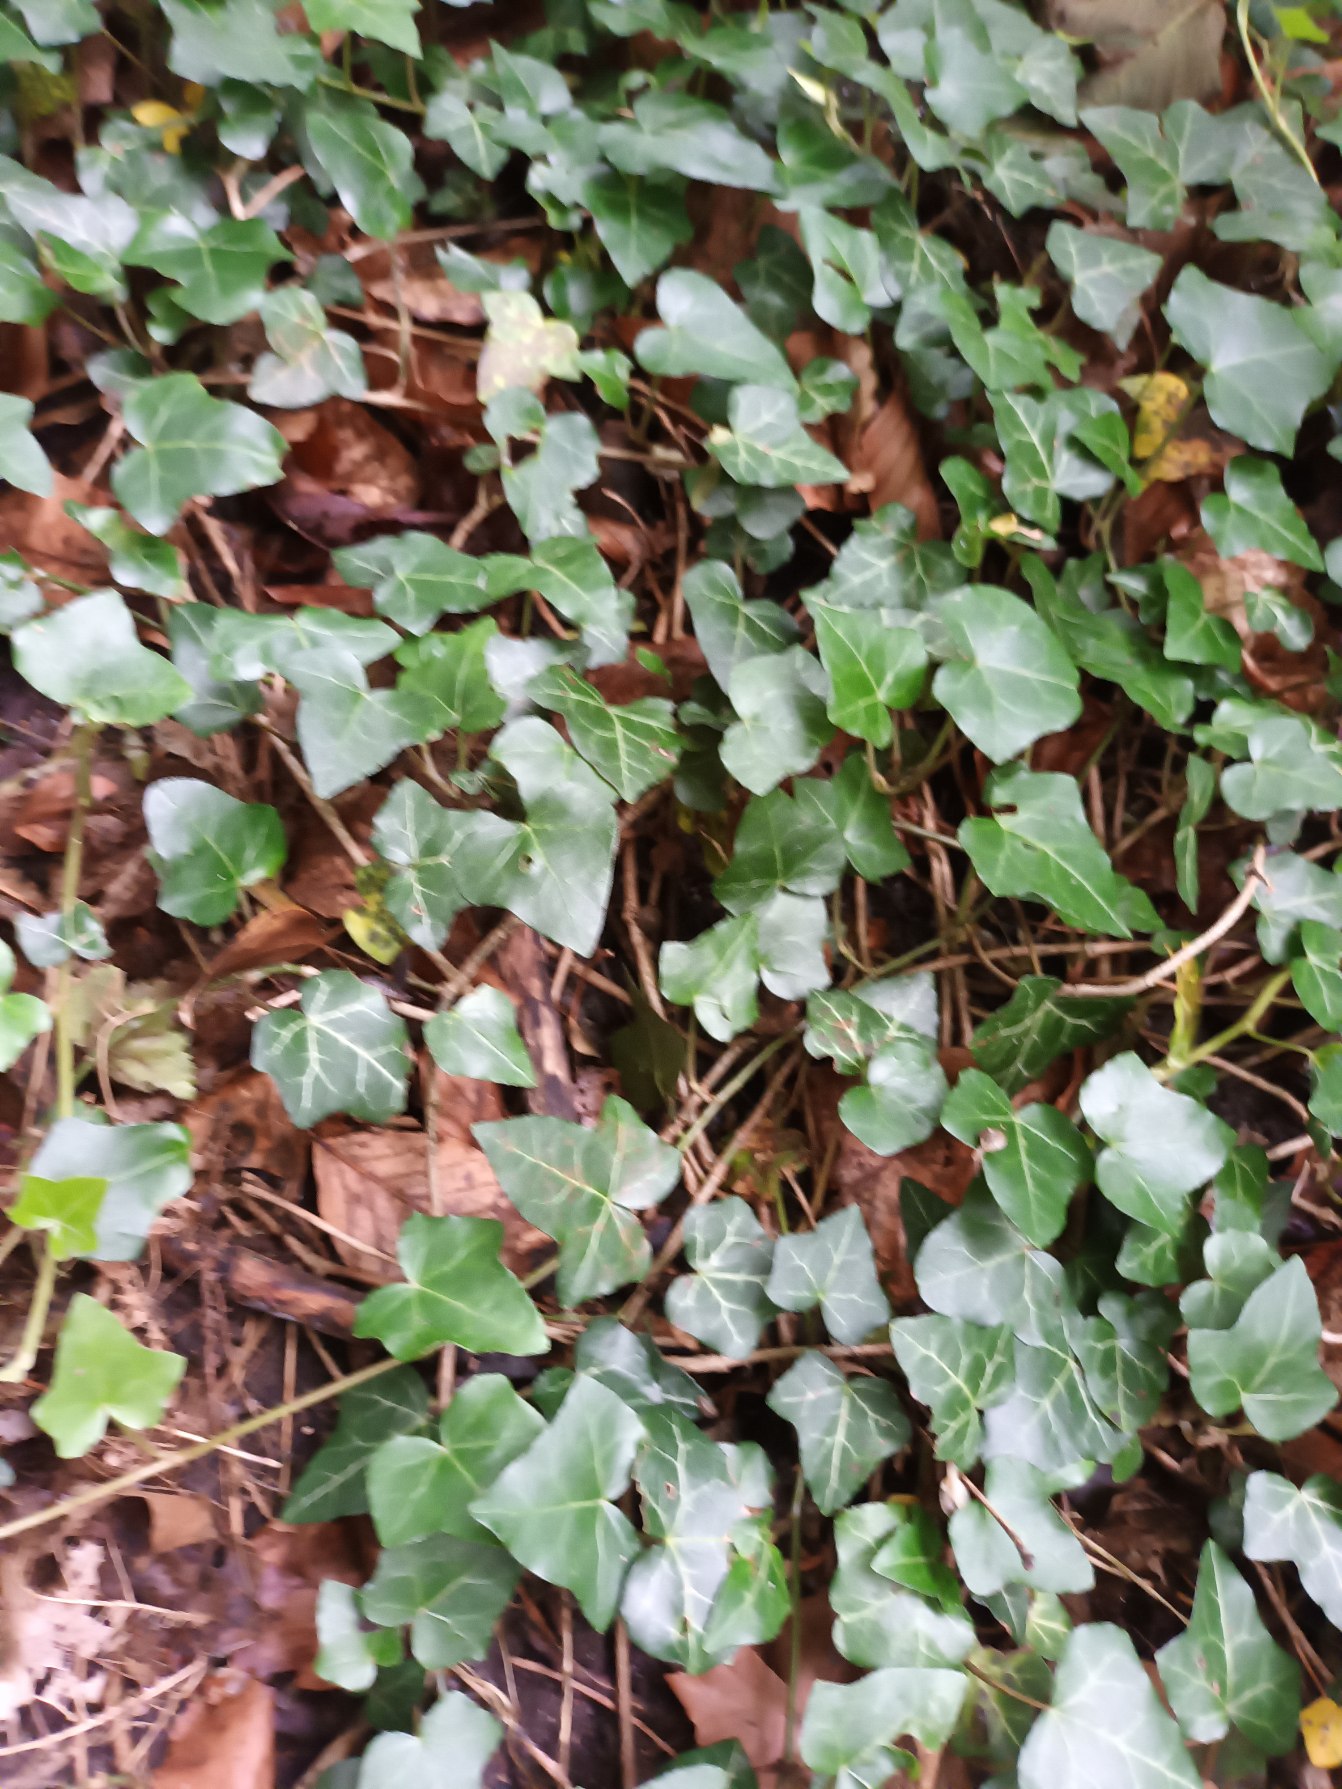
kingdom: Plantae
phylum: Tracheophyta
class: Magnoliopsida
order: Apiales
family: Araliaceae
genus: Hedera
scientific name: Hedera helix
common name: Vedbend
